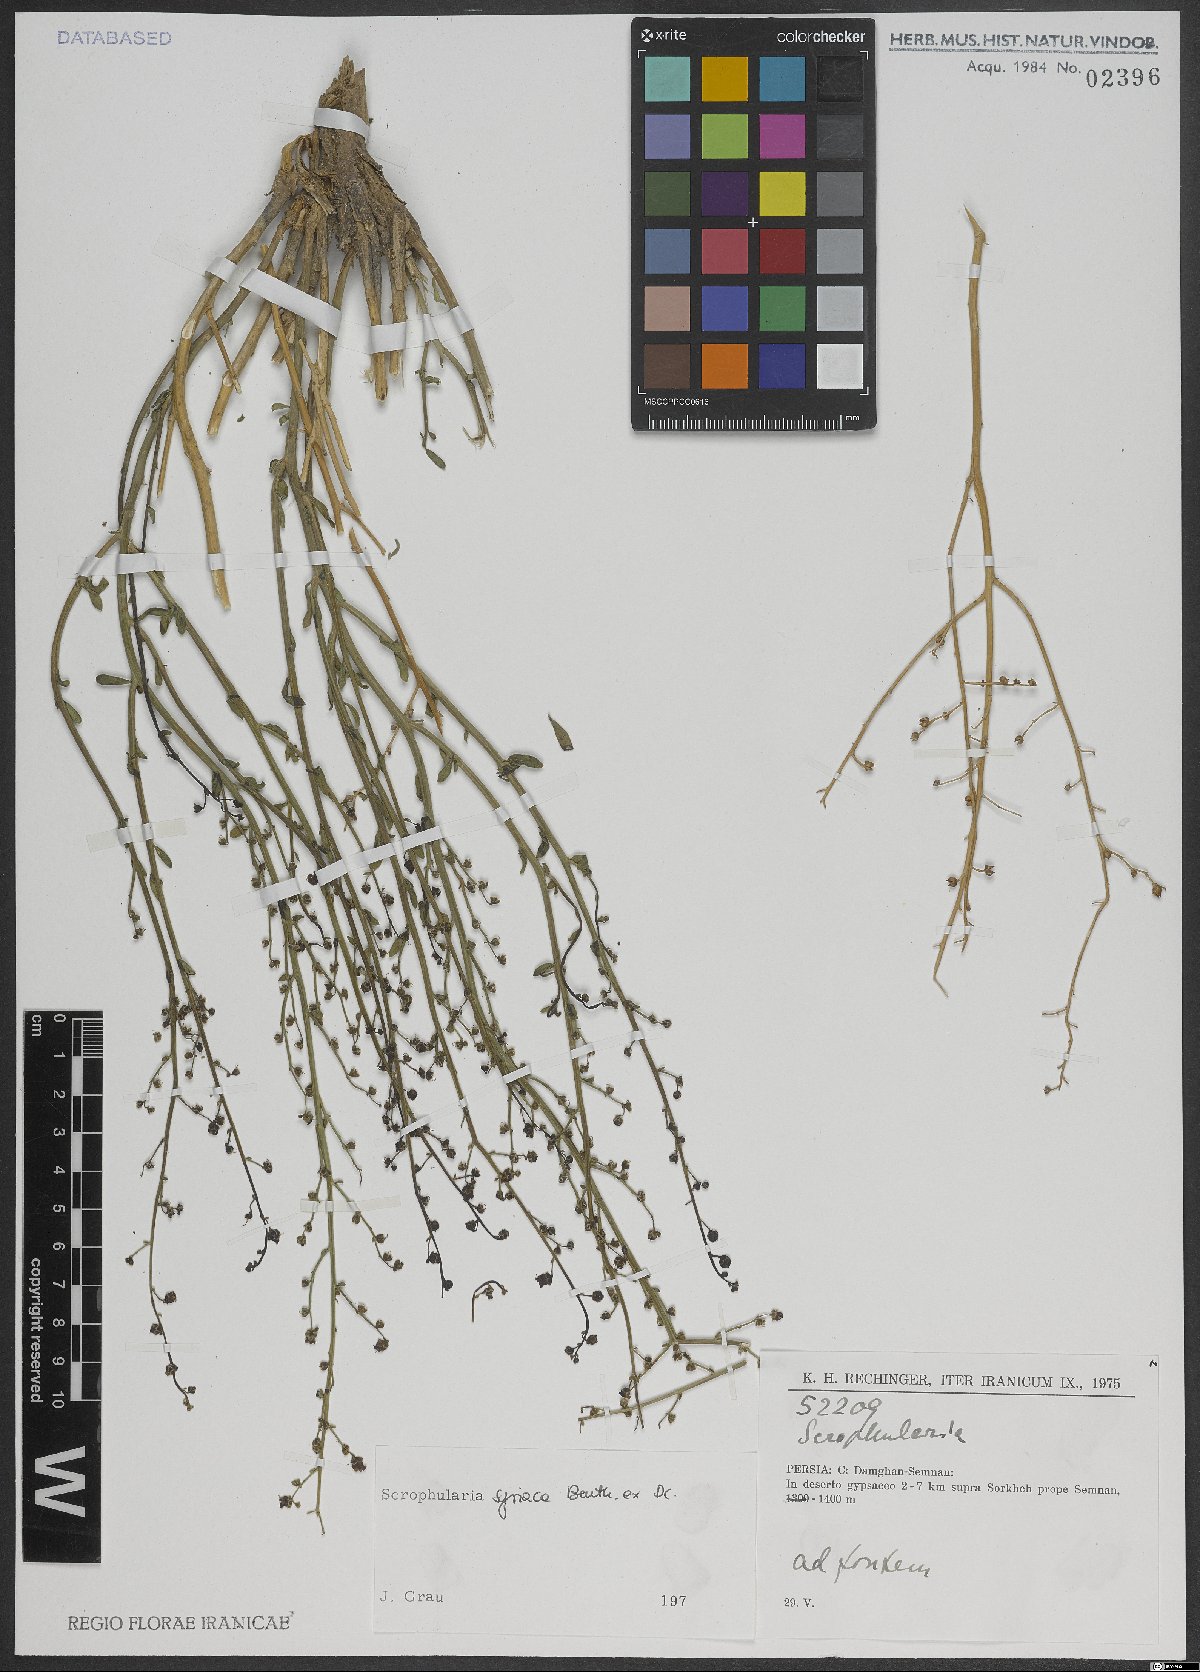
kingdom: Plantae
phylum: Tracheophyta
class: Magnoliopsida
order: Lamiales
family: Scrophulariaceae
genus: Scrophularia
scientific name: Scrophularia hypericifolia
